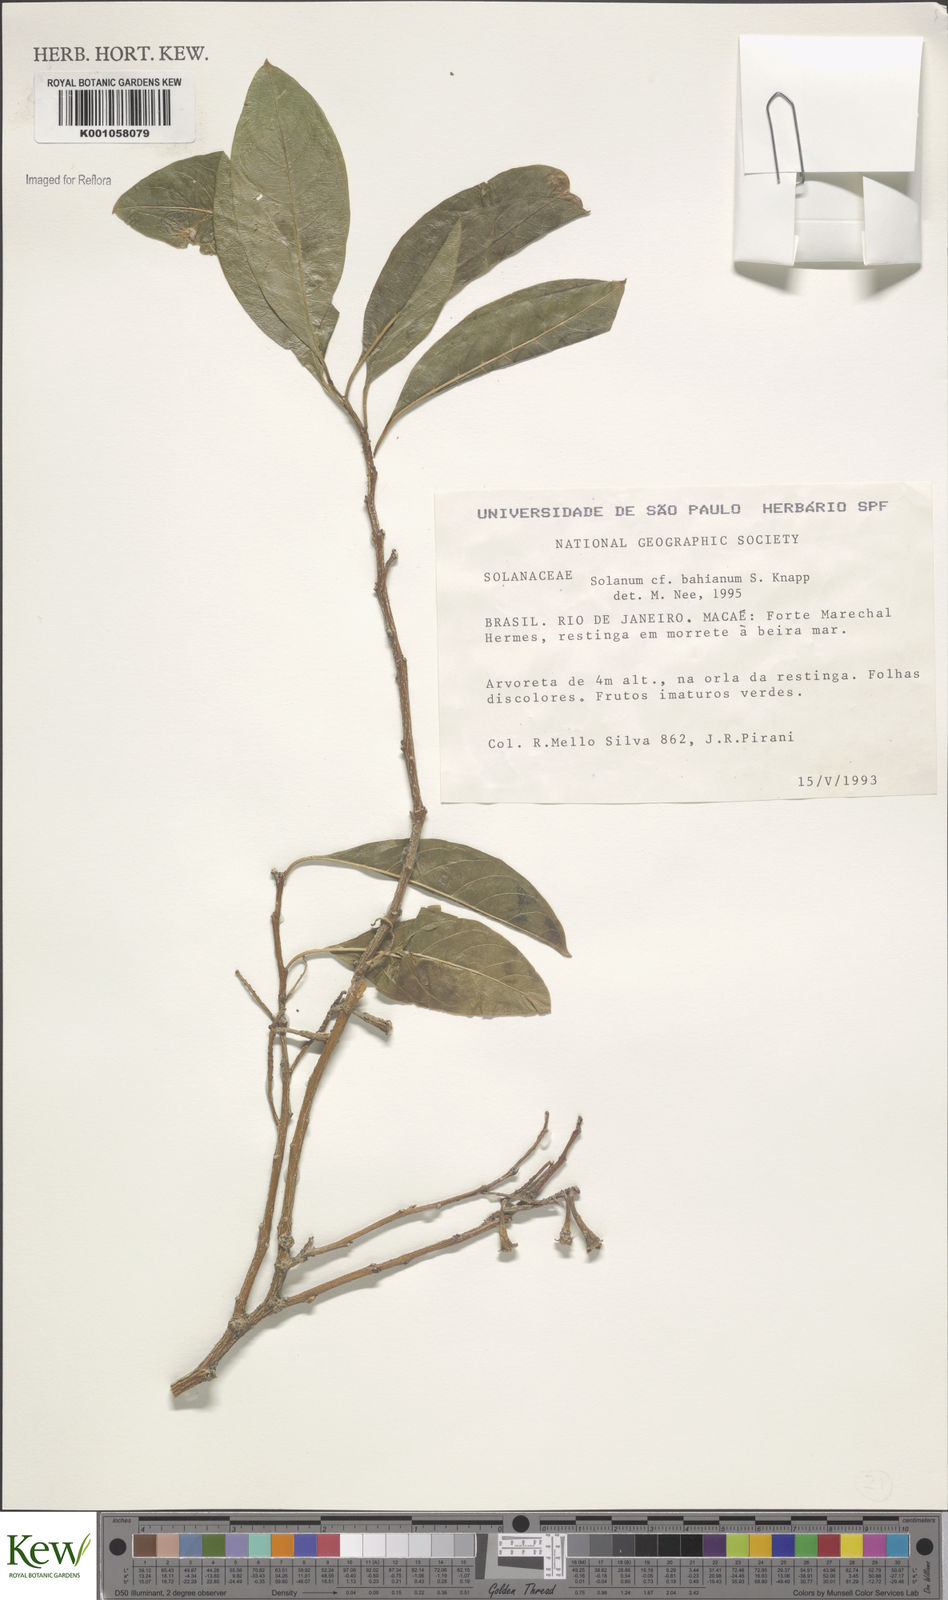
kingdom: Plantae
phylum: Tracheophyta
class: Magnoliopsida
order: Solanales
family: Solanaceae
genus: Solanum
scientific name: Solanum bahianum
